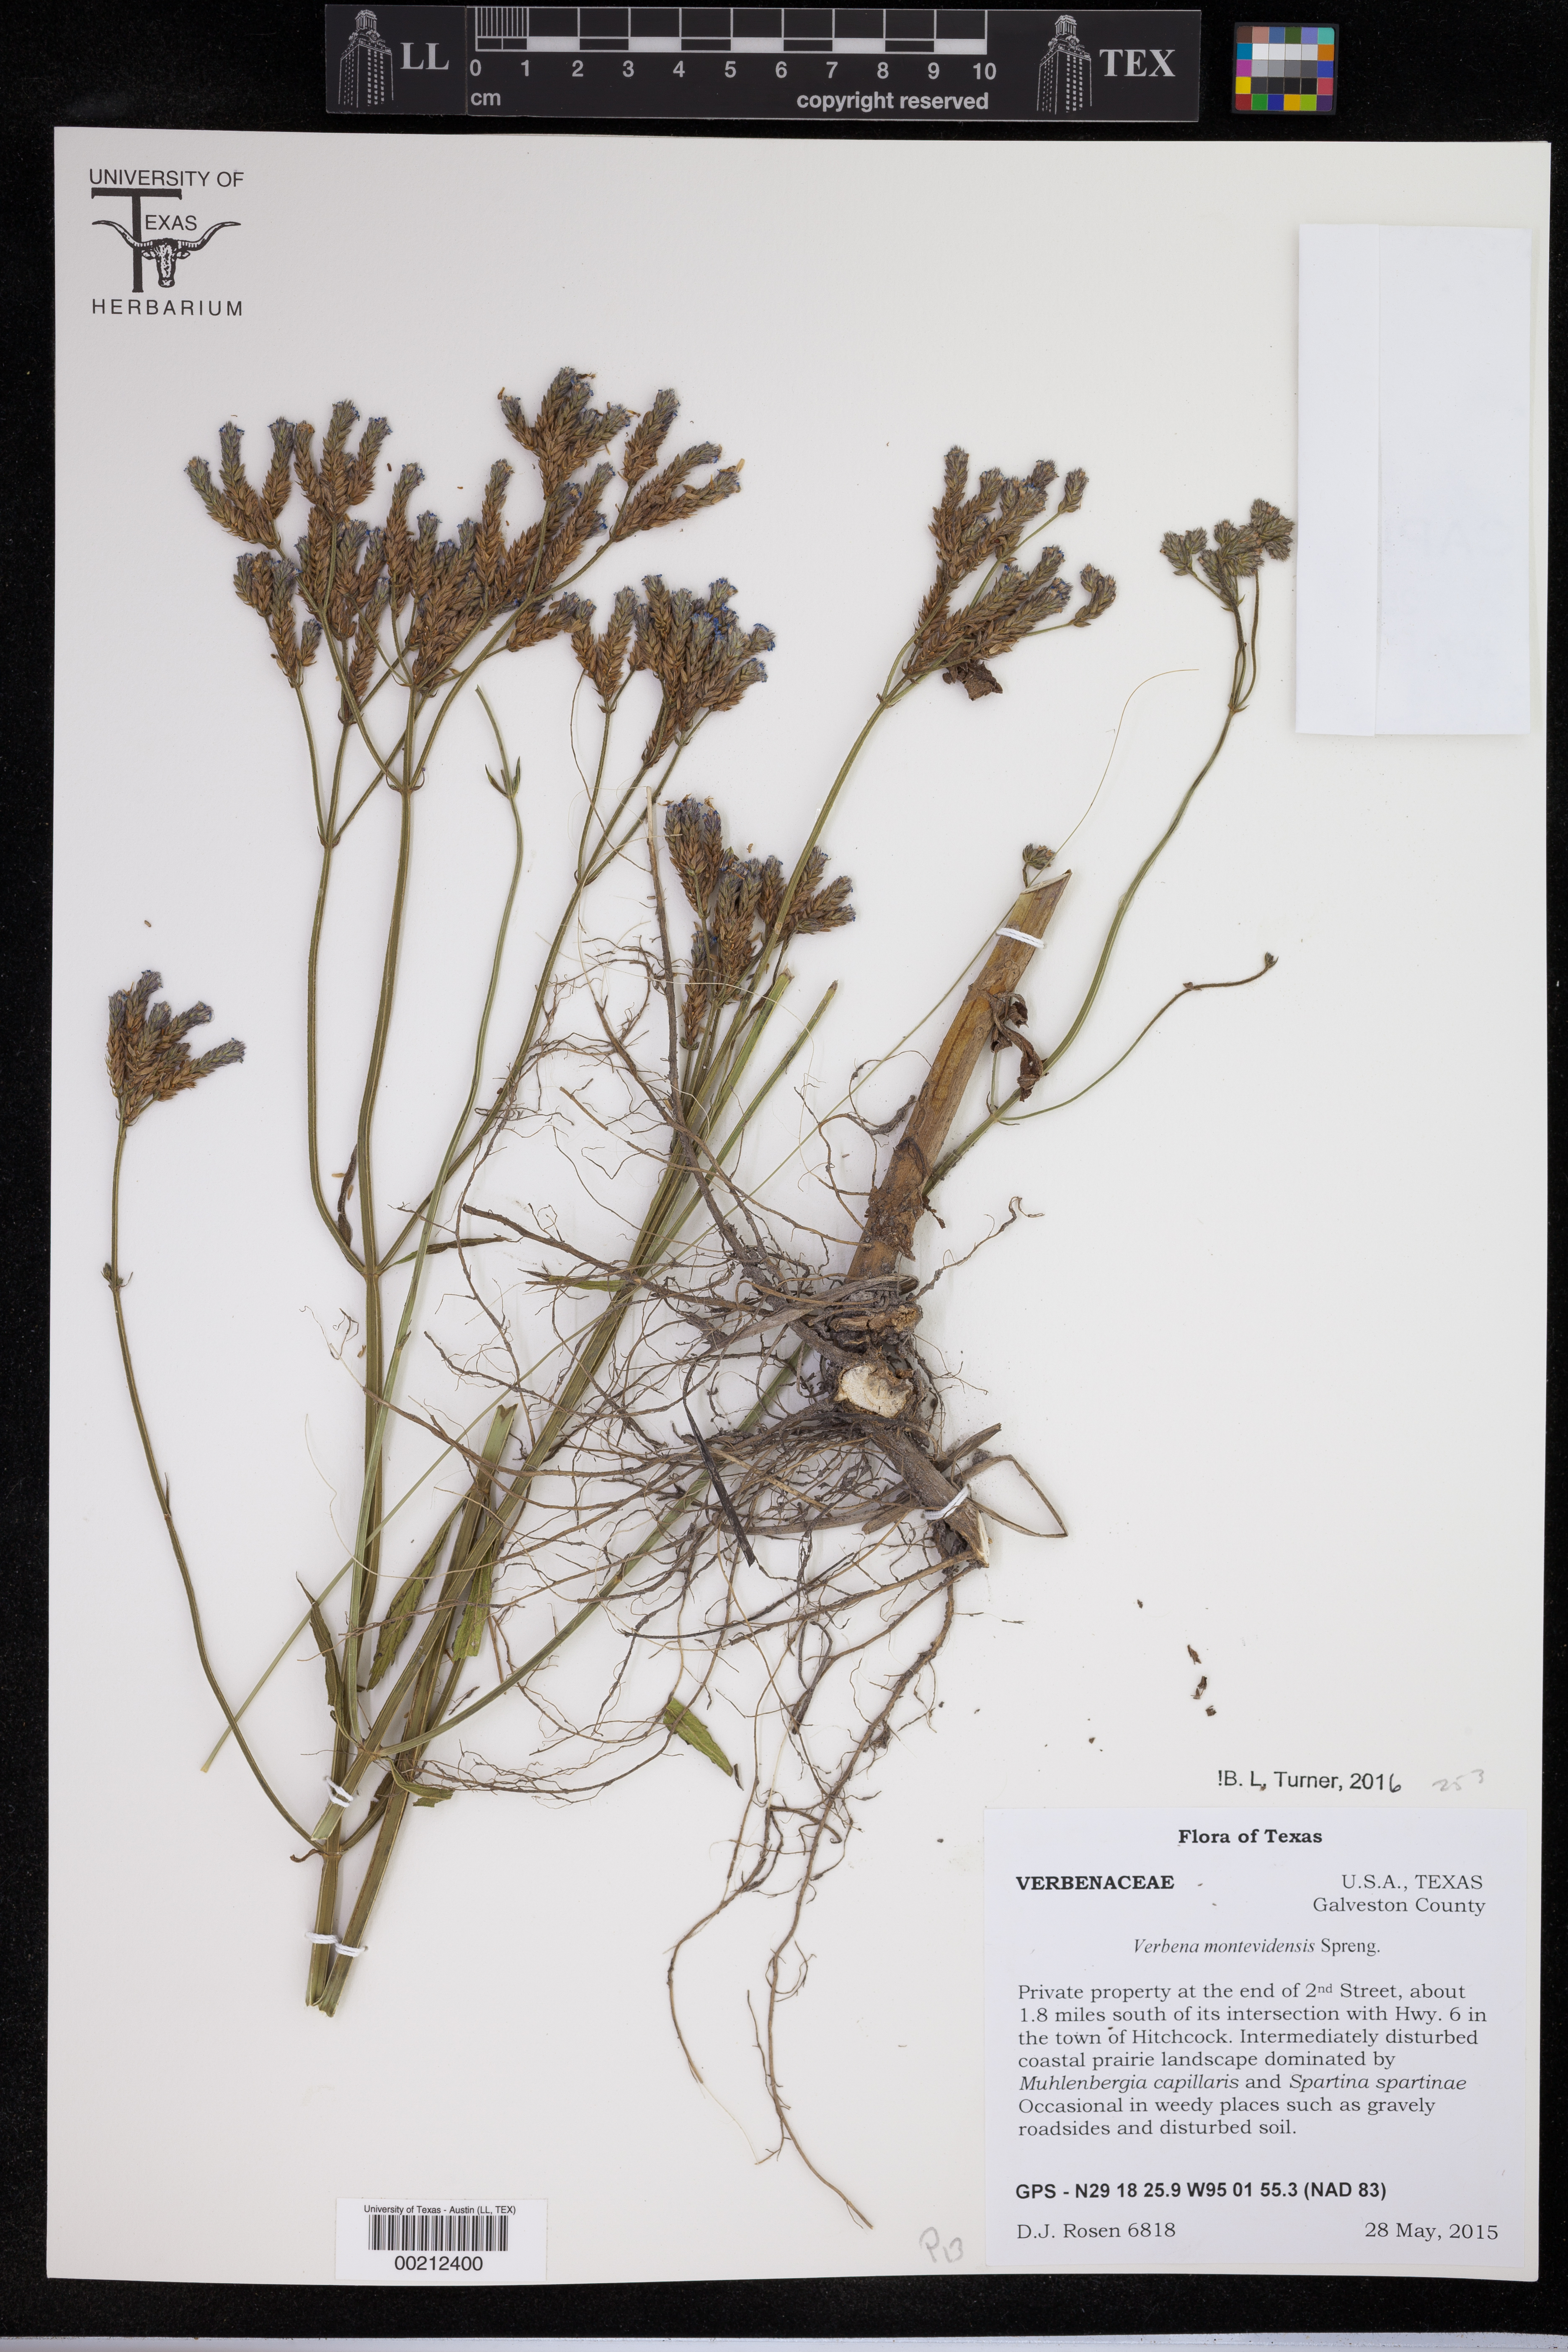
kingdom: Plantae
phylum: Tracheophyta
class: Magnoliopsida
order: Lamiales
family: Orobanchaceae
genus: Castilleja
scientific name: Castilleja indivisa
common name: Texas paintbrush
